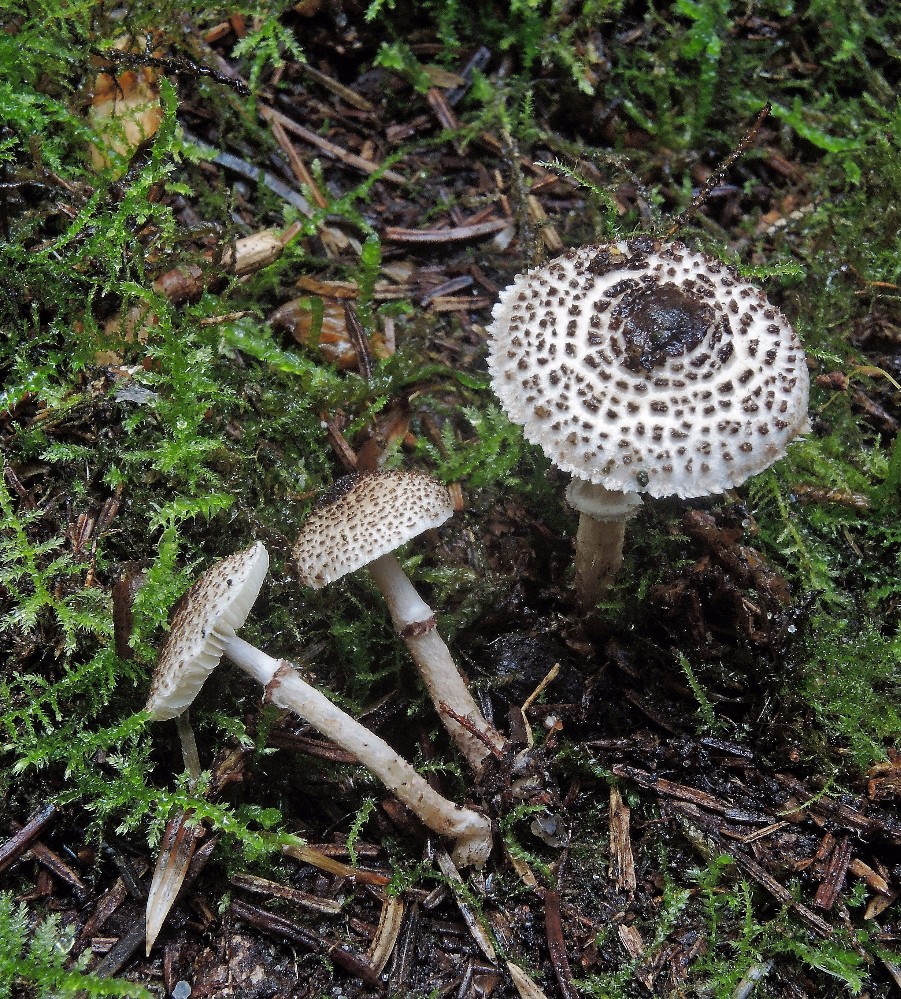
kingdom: Fungi
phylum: Basidiomycota
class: Agaricomycetes
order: Agaricales
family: Agaricaceae
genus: Lepiota
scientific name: Lepiota felina
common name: sortskællet parasolhat
